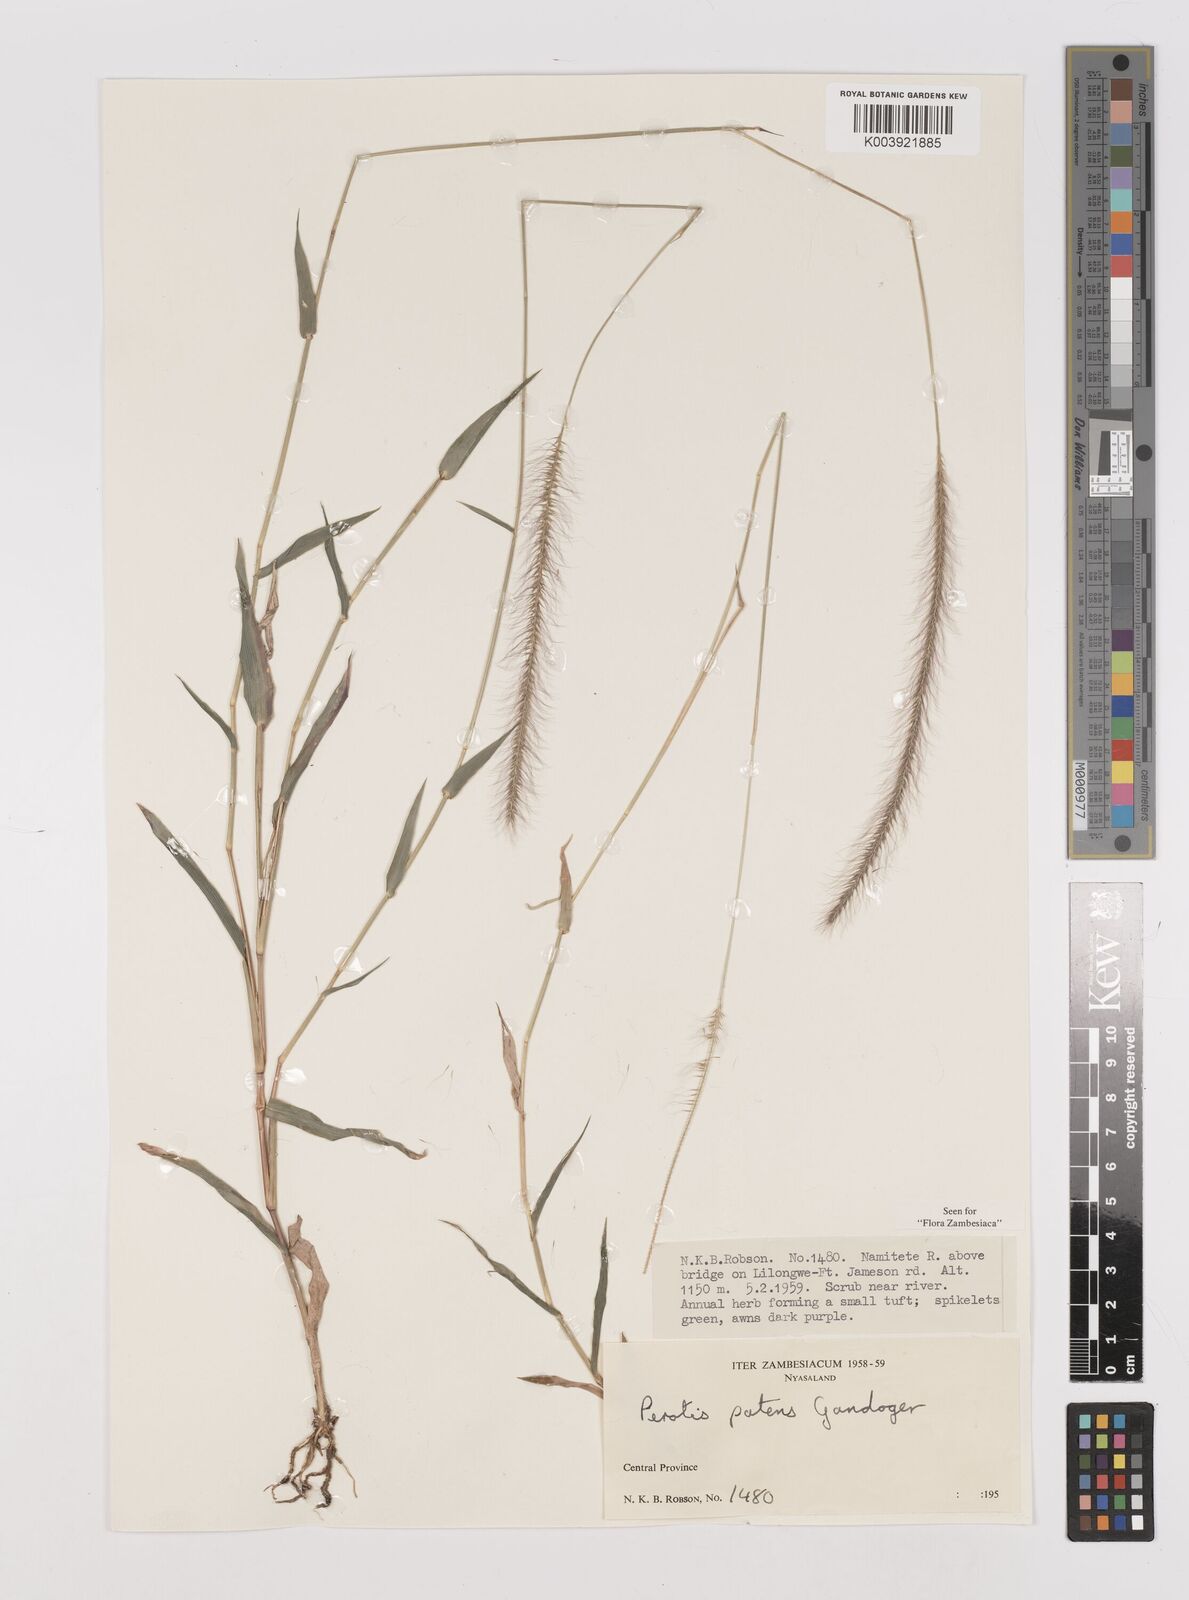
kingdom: Plantae
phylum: Tracheophyta
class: Liliopsida
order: Poales
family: Poaceae
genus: Perotis
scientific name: Perotis patens
